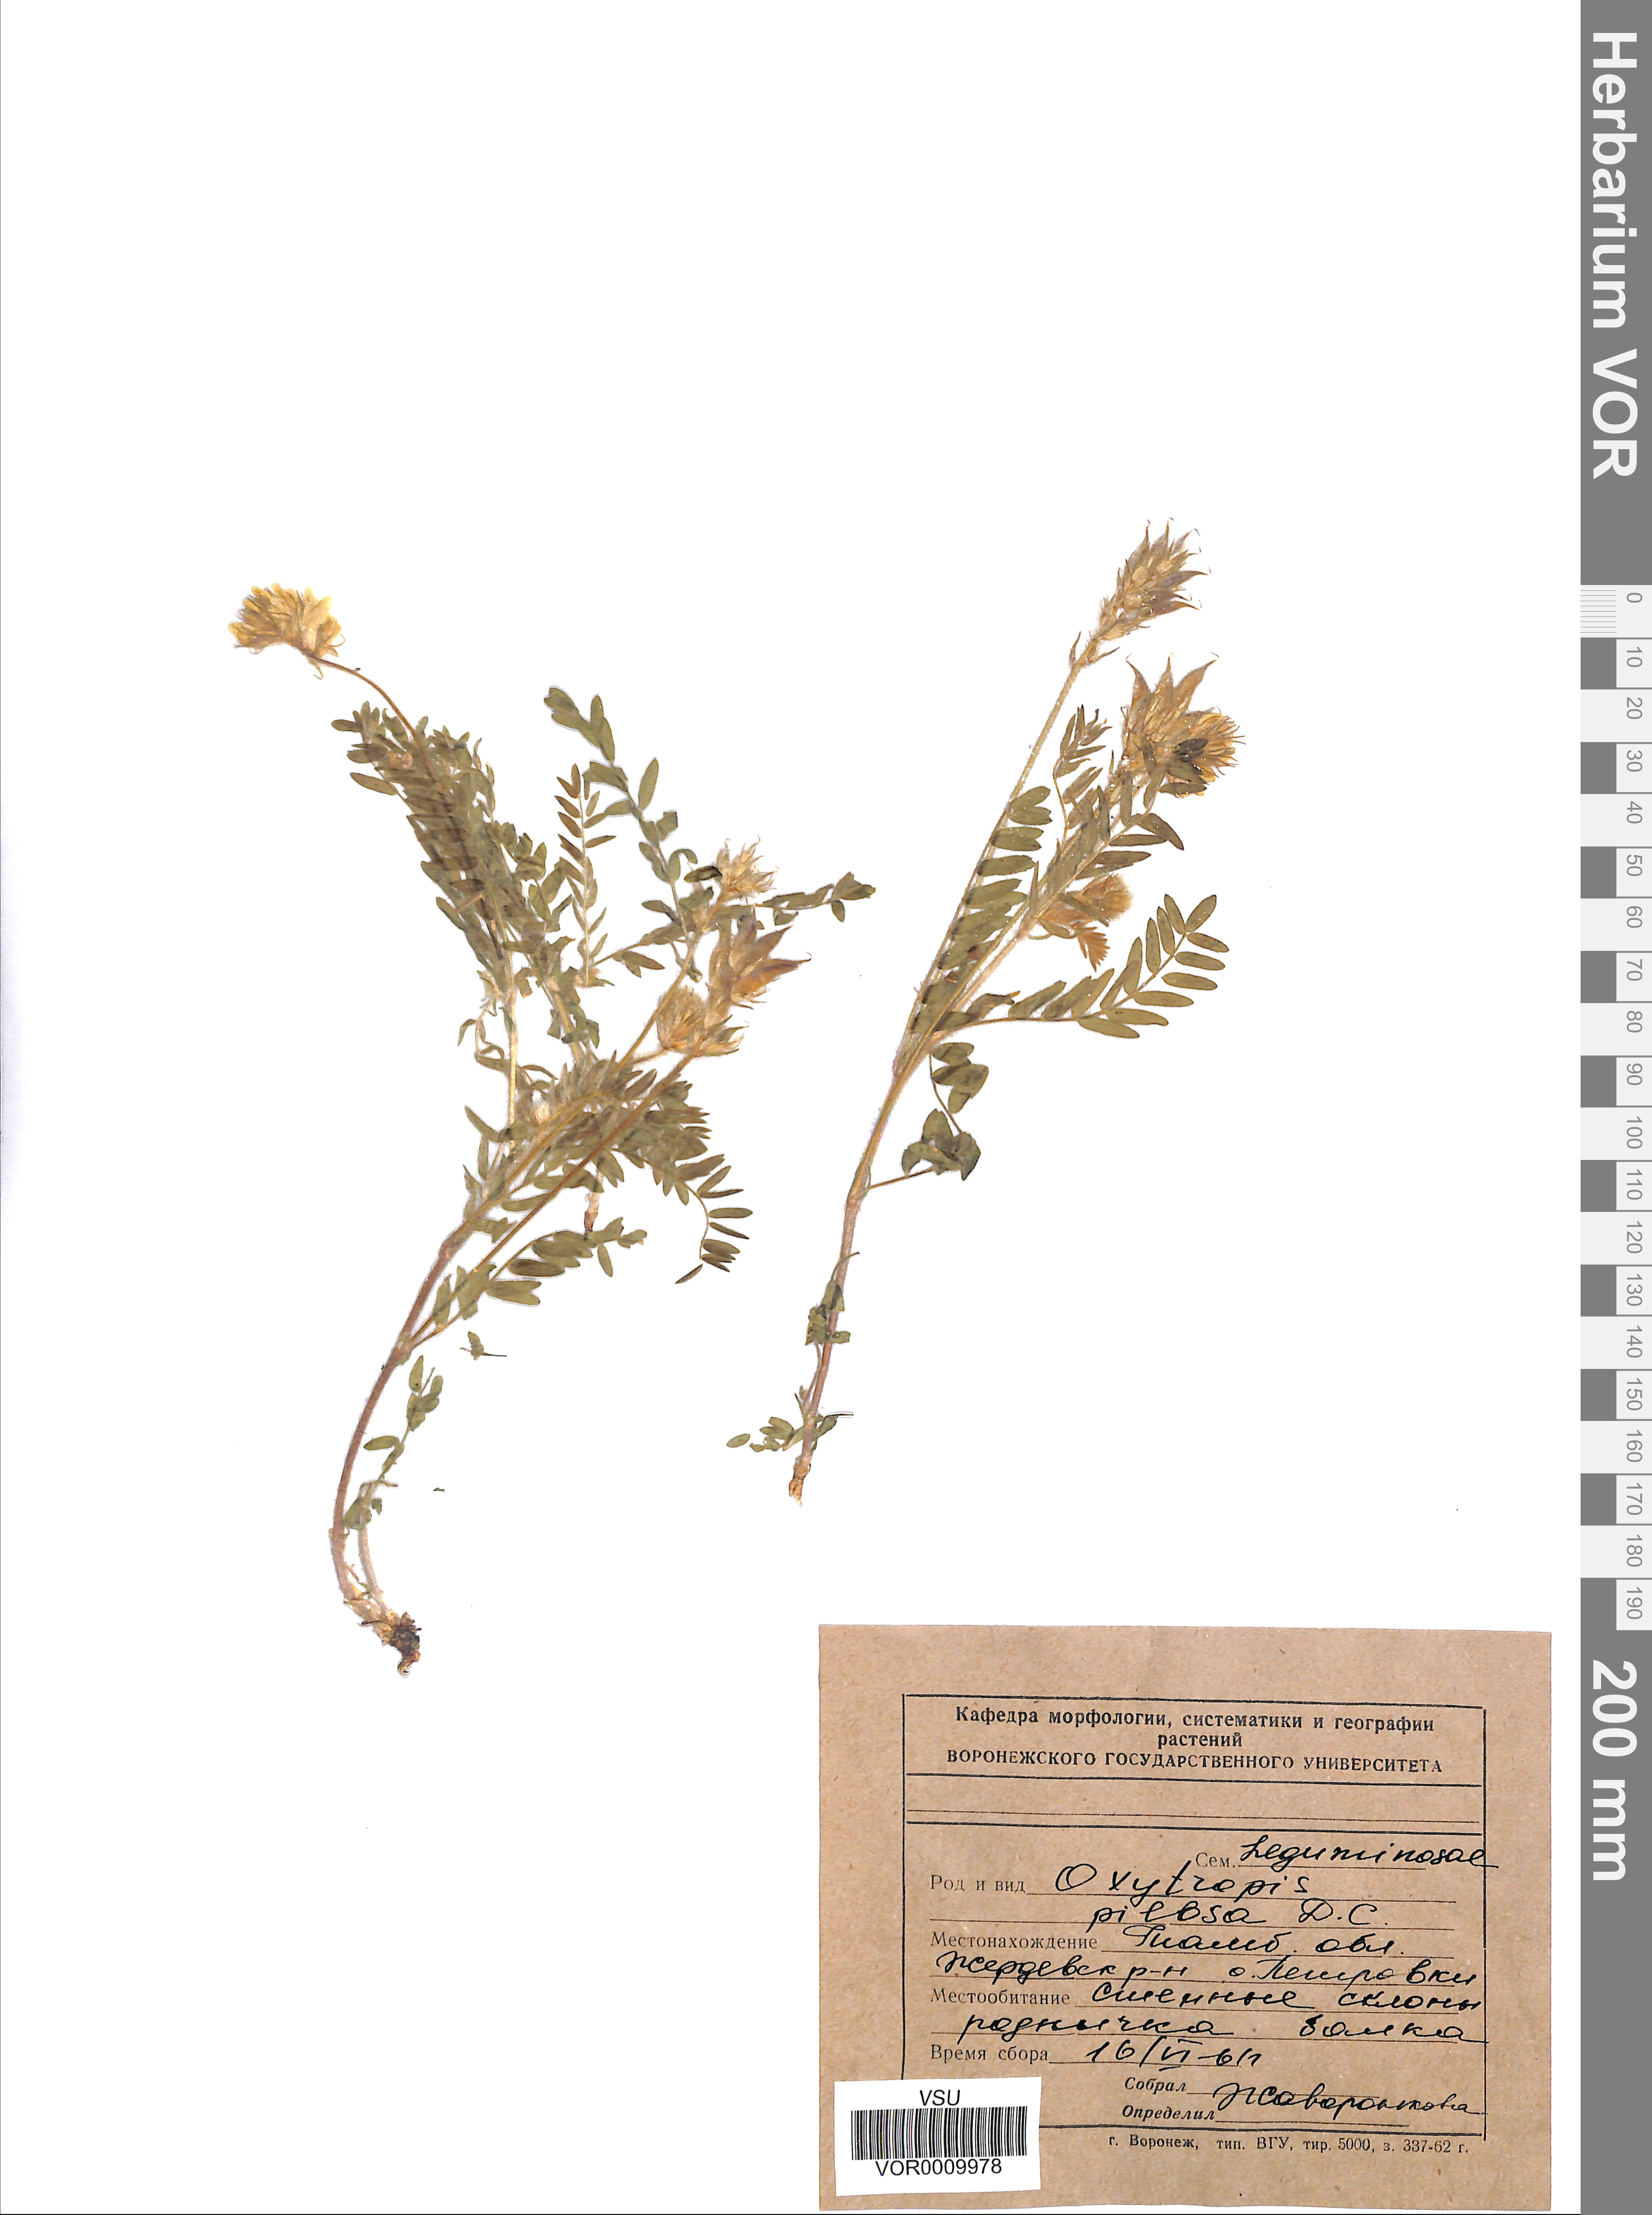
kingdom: Plantae
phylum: Tracheophyta
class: Magnoliopsida
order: Fabales
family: Fabaceae
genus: Oxytropis
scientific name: Oxytropis pilosa
